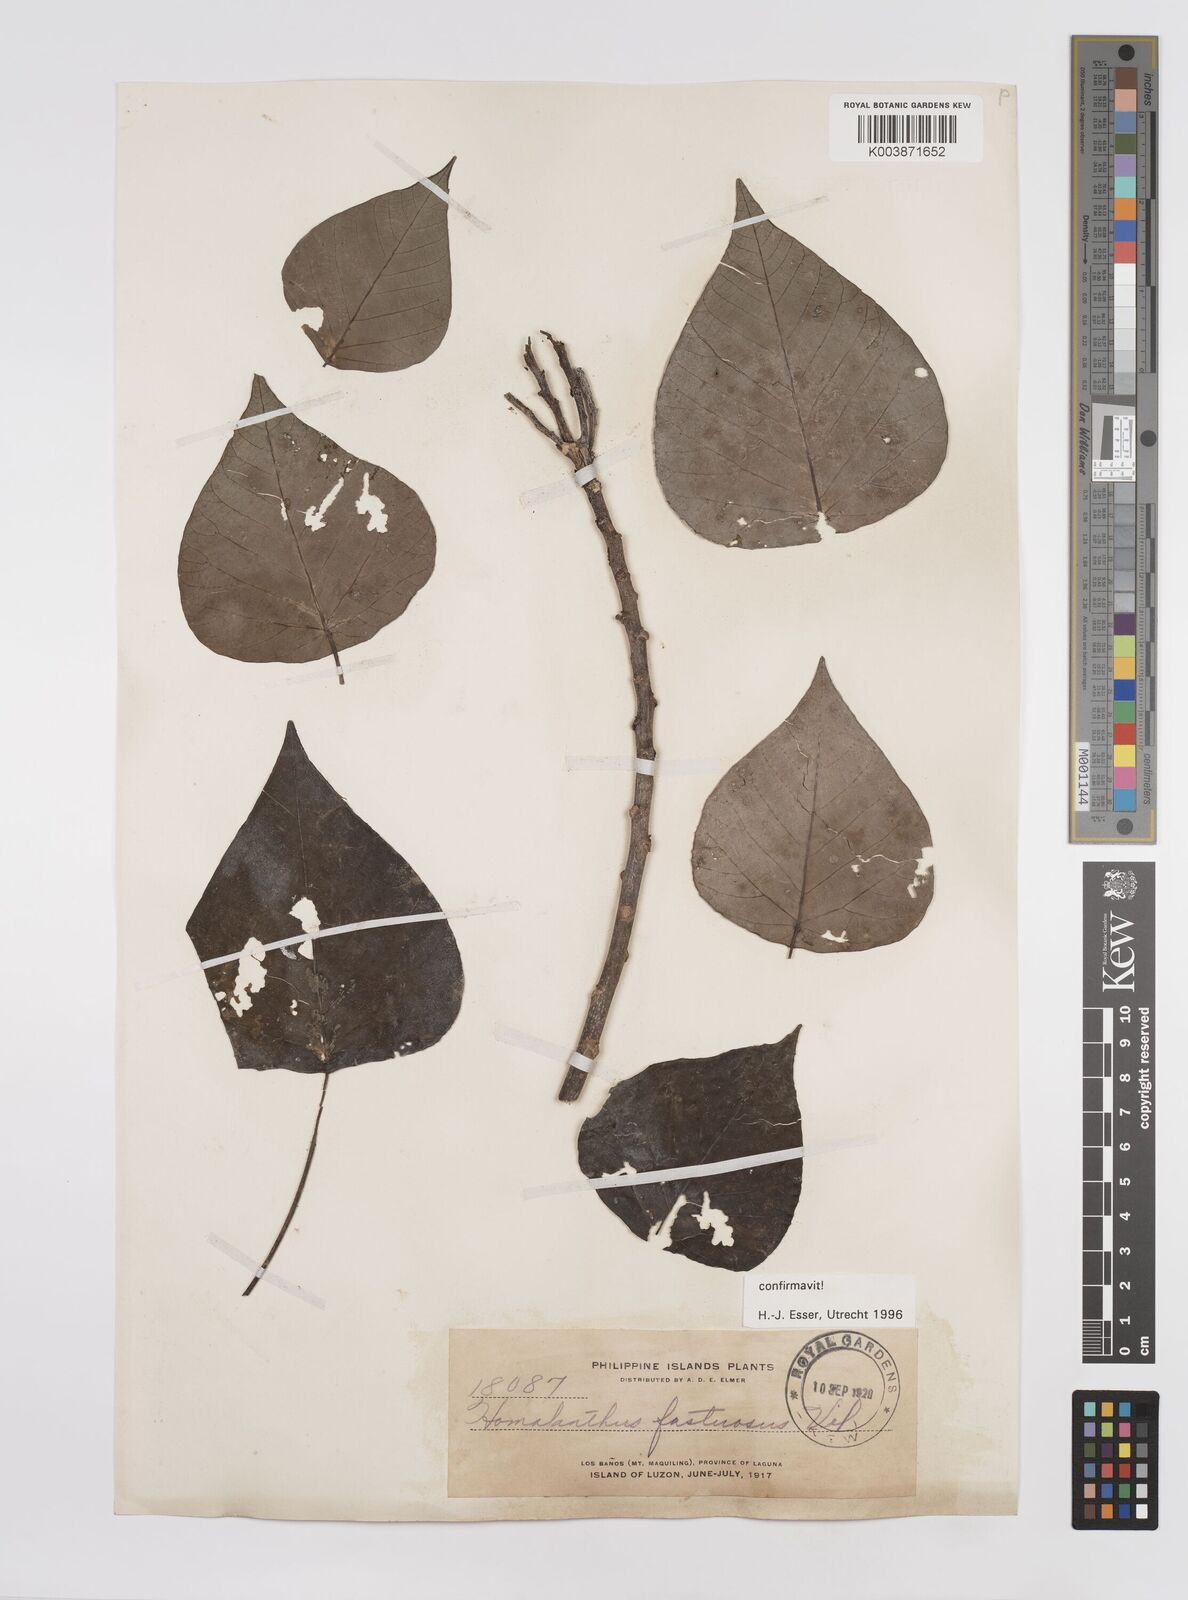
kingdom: Plantae
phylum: Tracheophyta
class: Magnoliopsida
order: Malpighiales
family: Euphorbiaceae
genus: Homalanthus
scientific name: Homalanthus fastuosus
